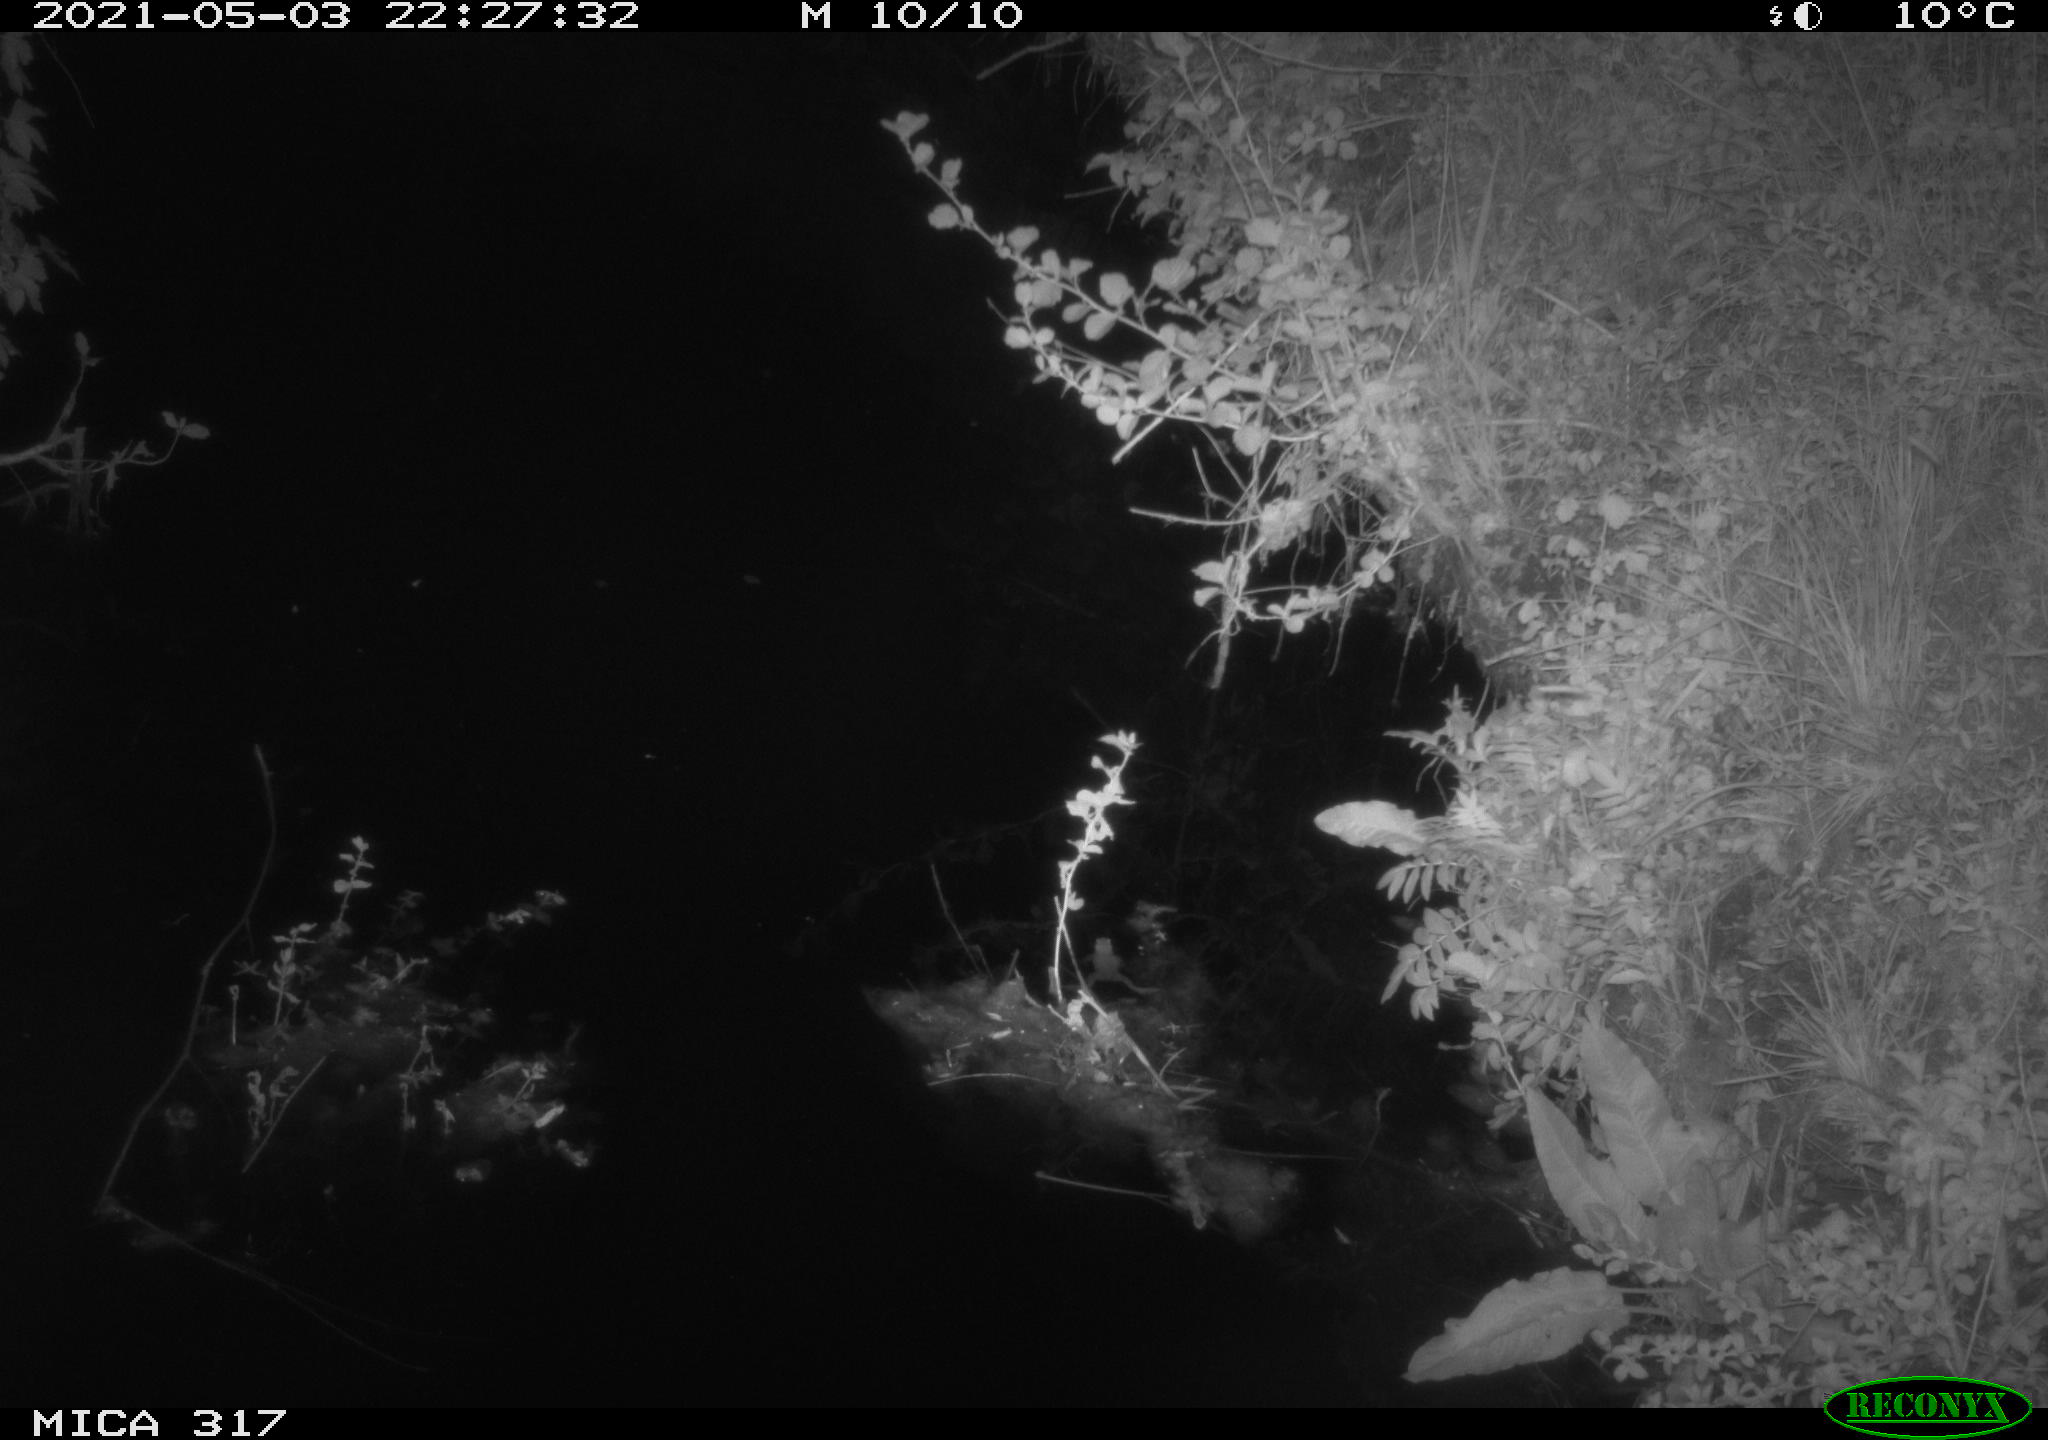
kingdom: Animalia
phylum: Chordata
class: Aves
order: Anseriformes
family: Anatidae
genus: Anas
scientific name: Anas
